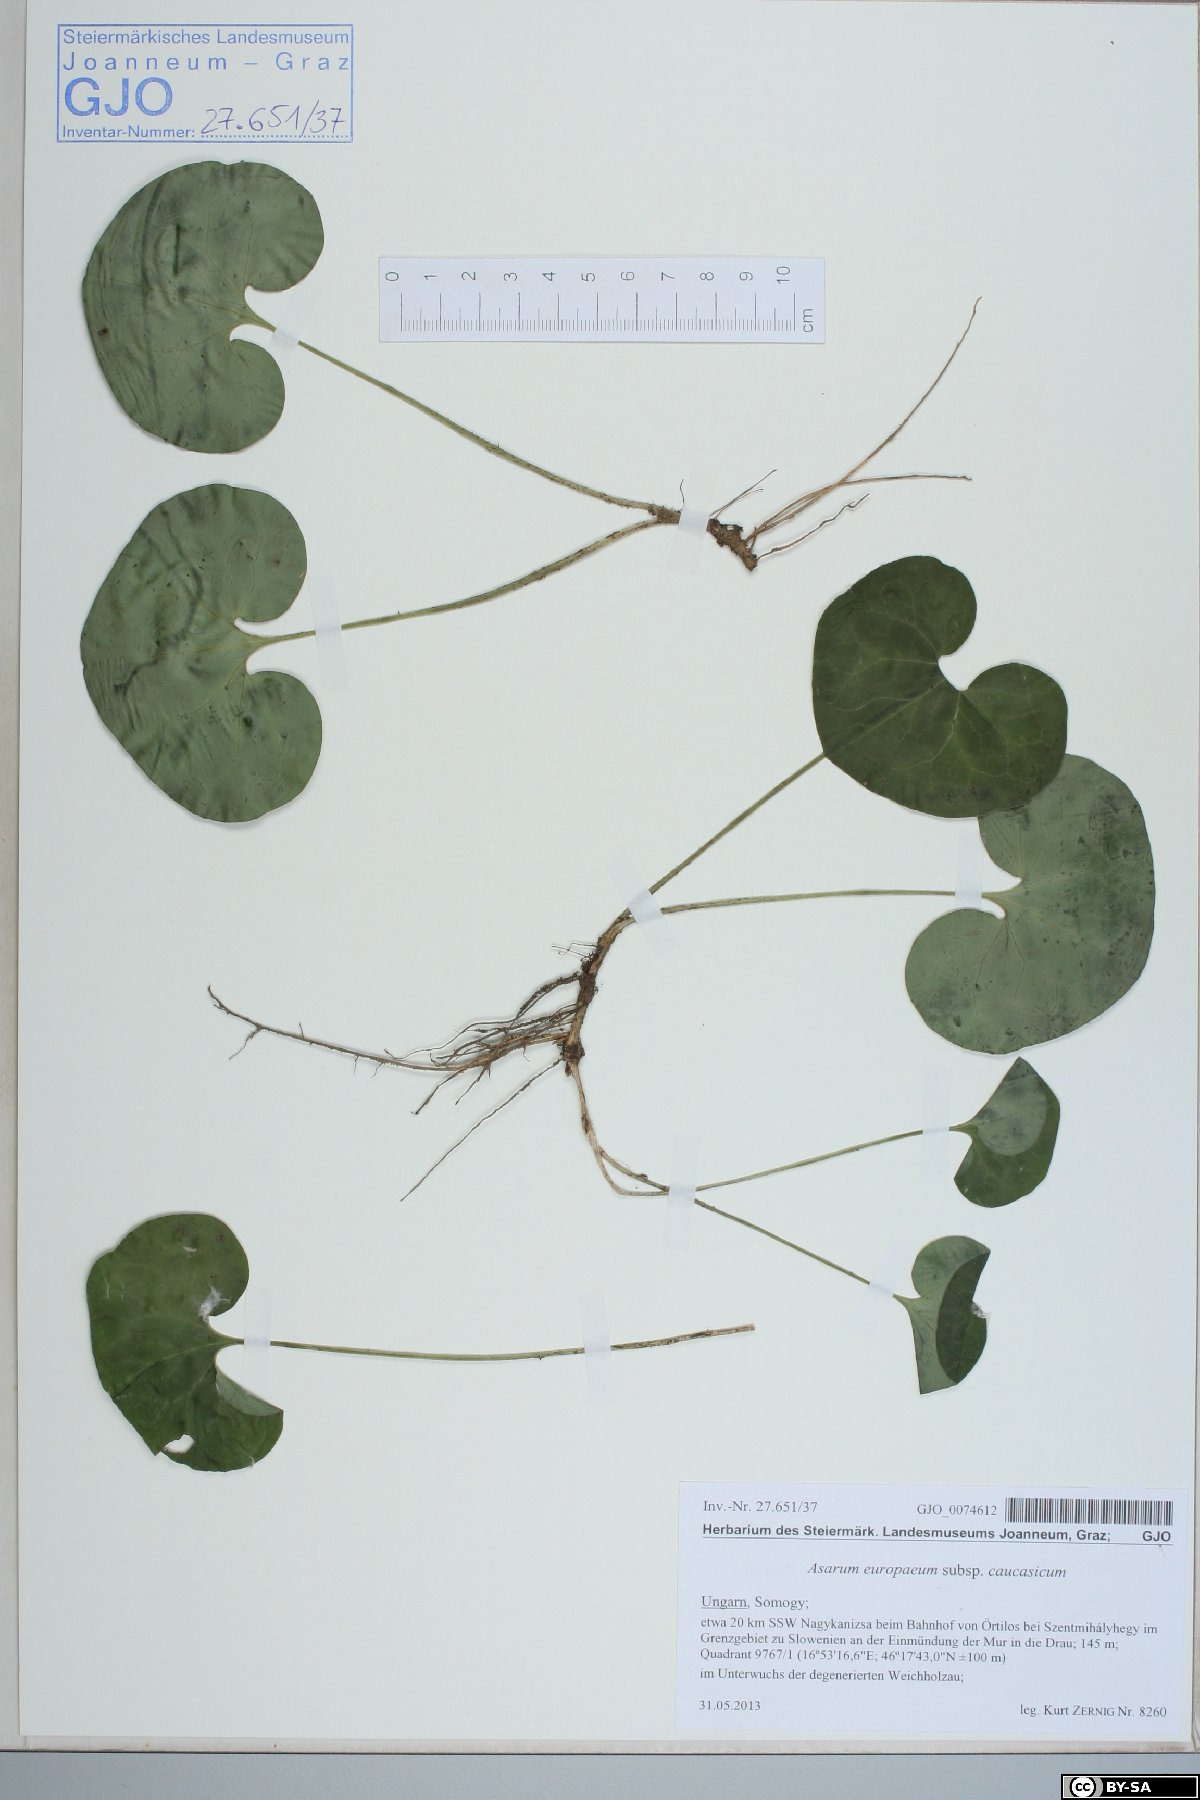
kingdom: Plantae
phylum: Tracheophyta
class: Magnoliopsida
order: Piperales
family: Aristolochiaceae
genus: Asarum
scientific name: Asarum europaeum
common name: Asarabacca
